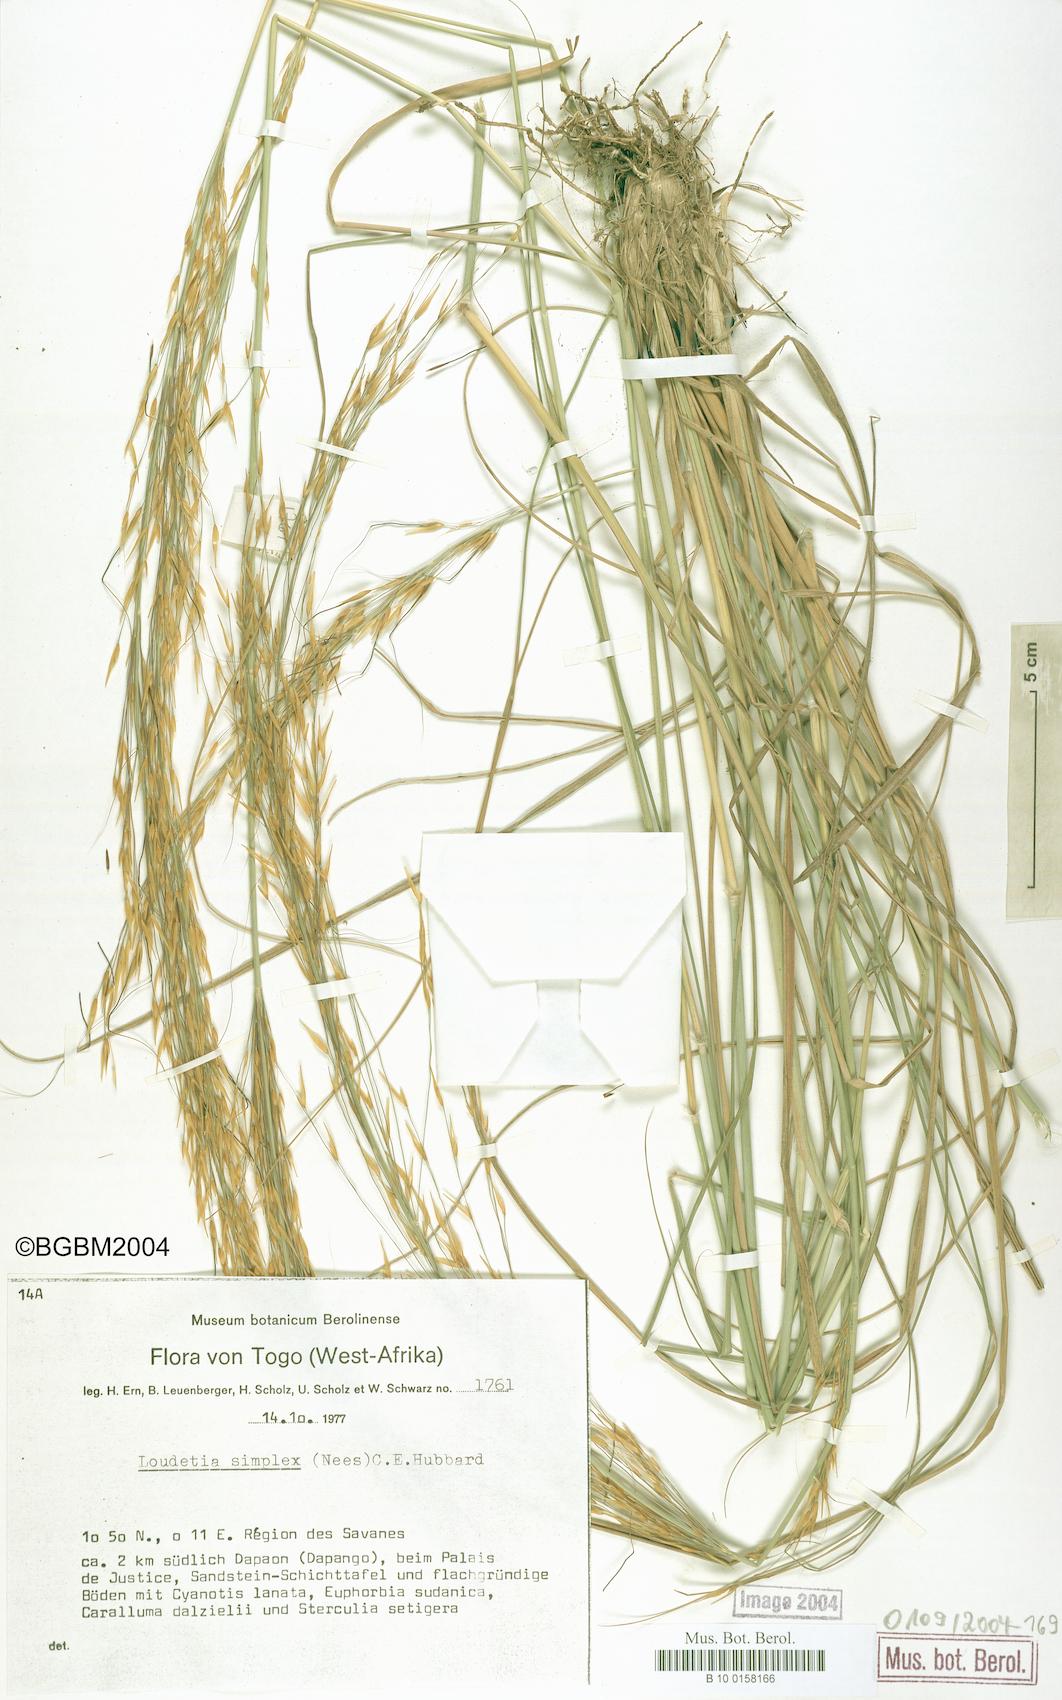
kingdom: Plantae
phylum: Tracheophyta
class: Liliopsida
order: Poales
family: Poaceae
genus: Loudetia
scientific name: Loudetia simplex
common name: Common russet grass
